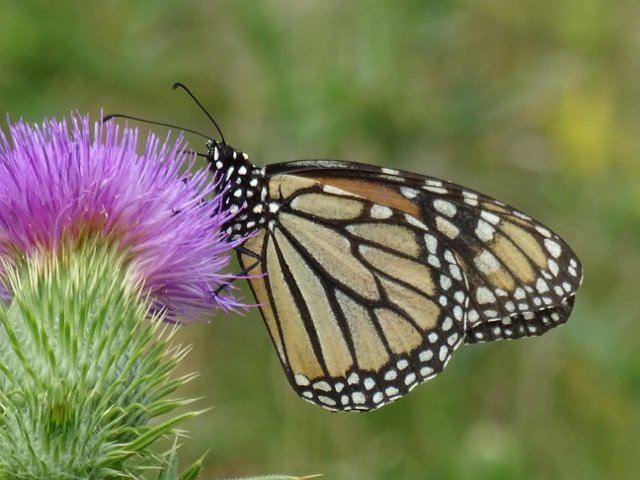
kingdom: Animalia
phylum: Arthropoda
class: Insecta
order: Lepidoptera
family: Nymphalidae
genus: Danaus
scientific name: Danaus plexippus
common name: Monarch
